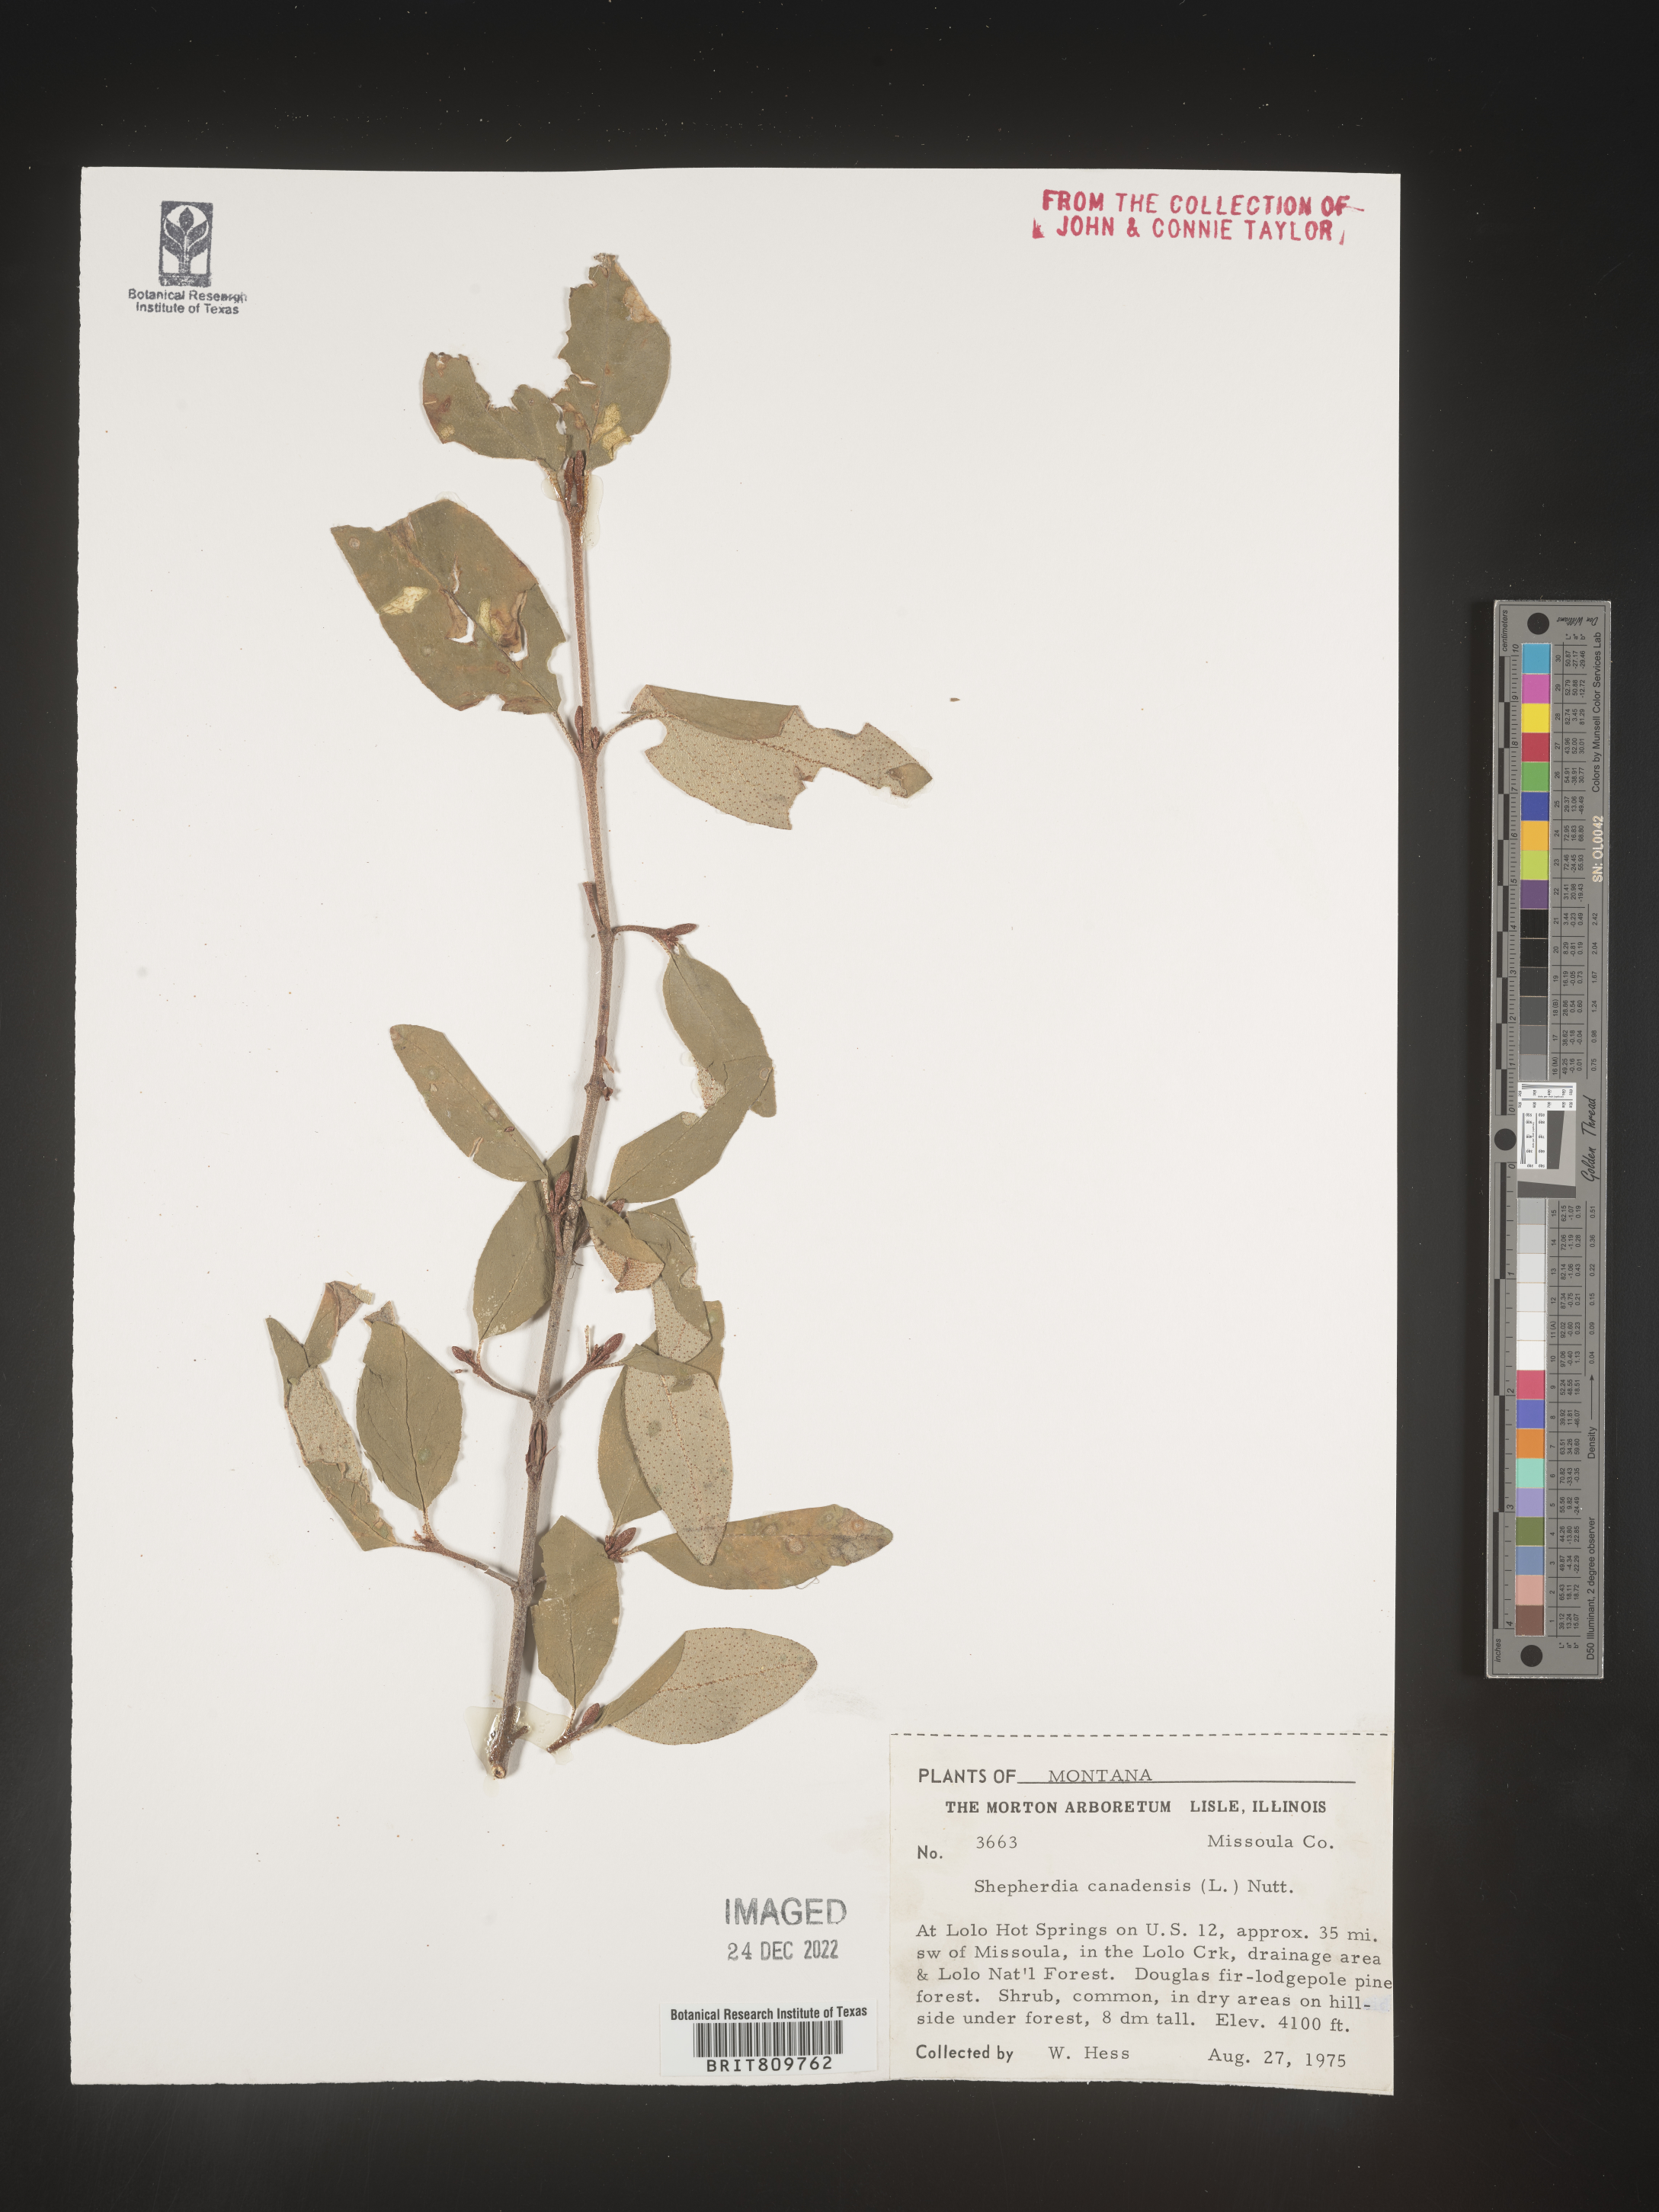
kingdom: Plantae
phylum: Tracheophyta
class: Magnoliopsida
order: Rosales
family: Elaeagnaceae
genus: Shepherdia
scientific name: Shepherdia canadensis
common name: Soapberry
